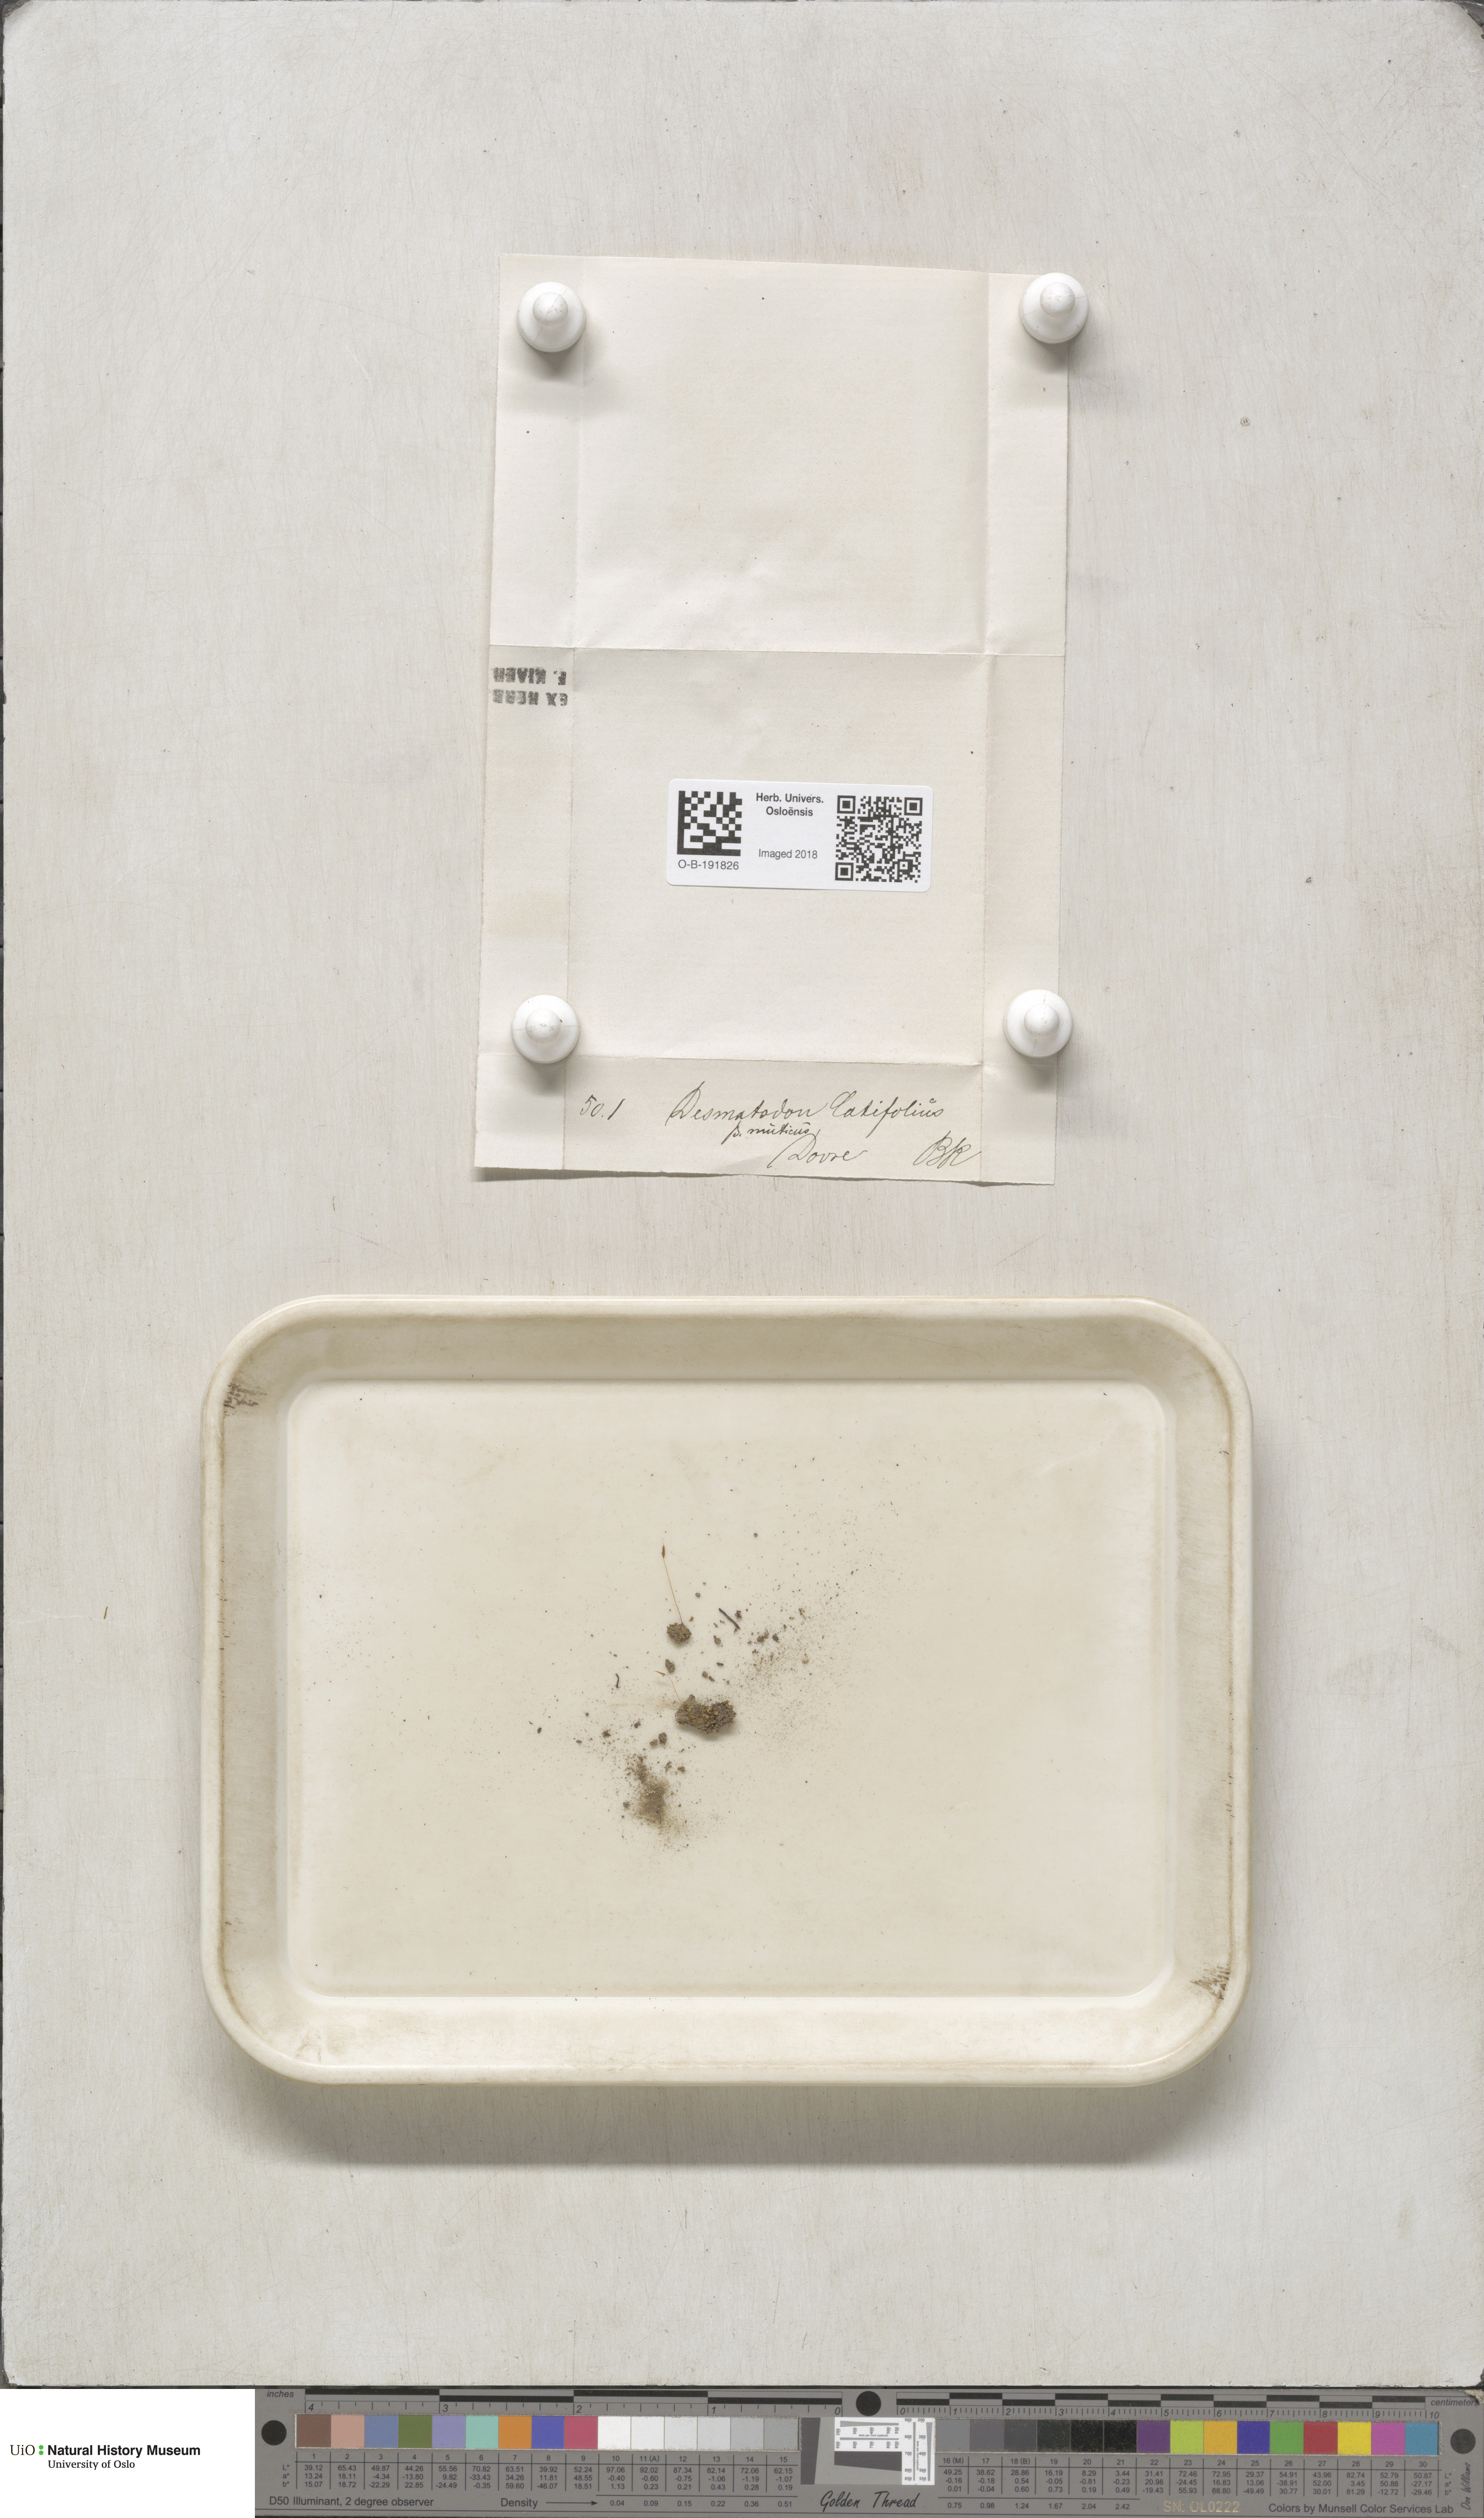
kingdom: Plantae
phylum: Bryophyta
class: Bryopsida
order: Pottiales
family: Pottiaceae
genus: Tortula
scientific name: Tortula hoppeana
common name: Hoppe's screw moss
